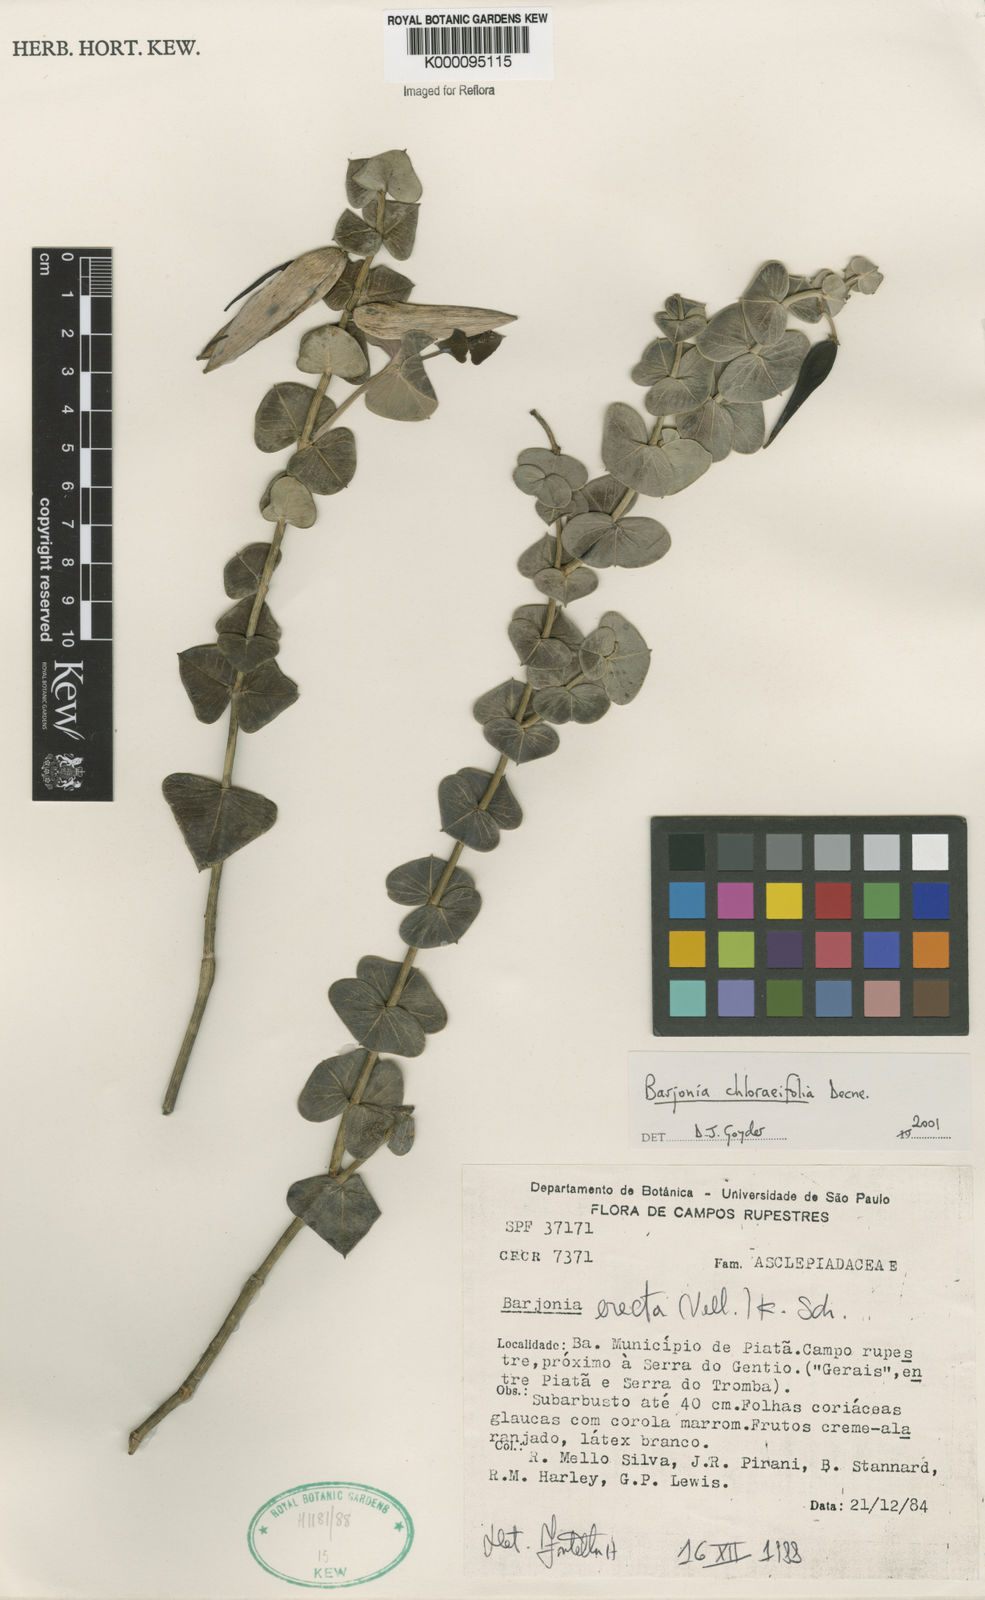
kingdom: Plantae
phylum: Tracheophyta
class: Magnoliopsida
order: Gentianales
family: Apocynaceae
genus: Barjonia
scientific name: Barjonia
